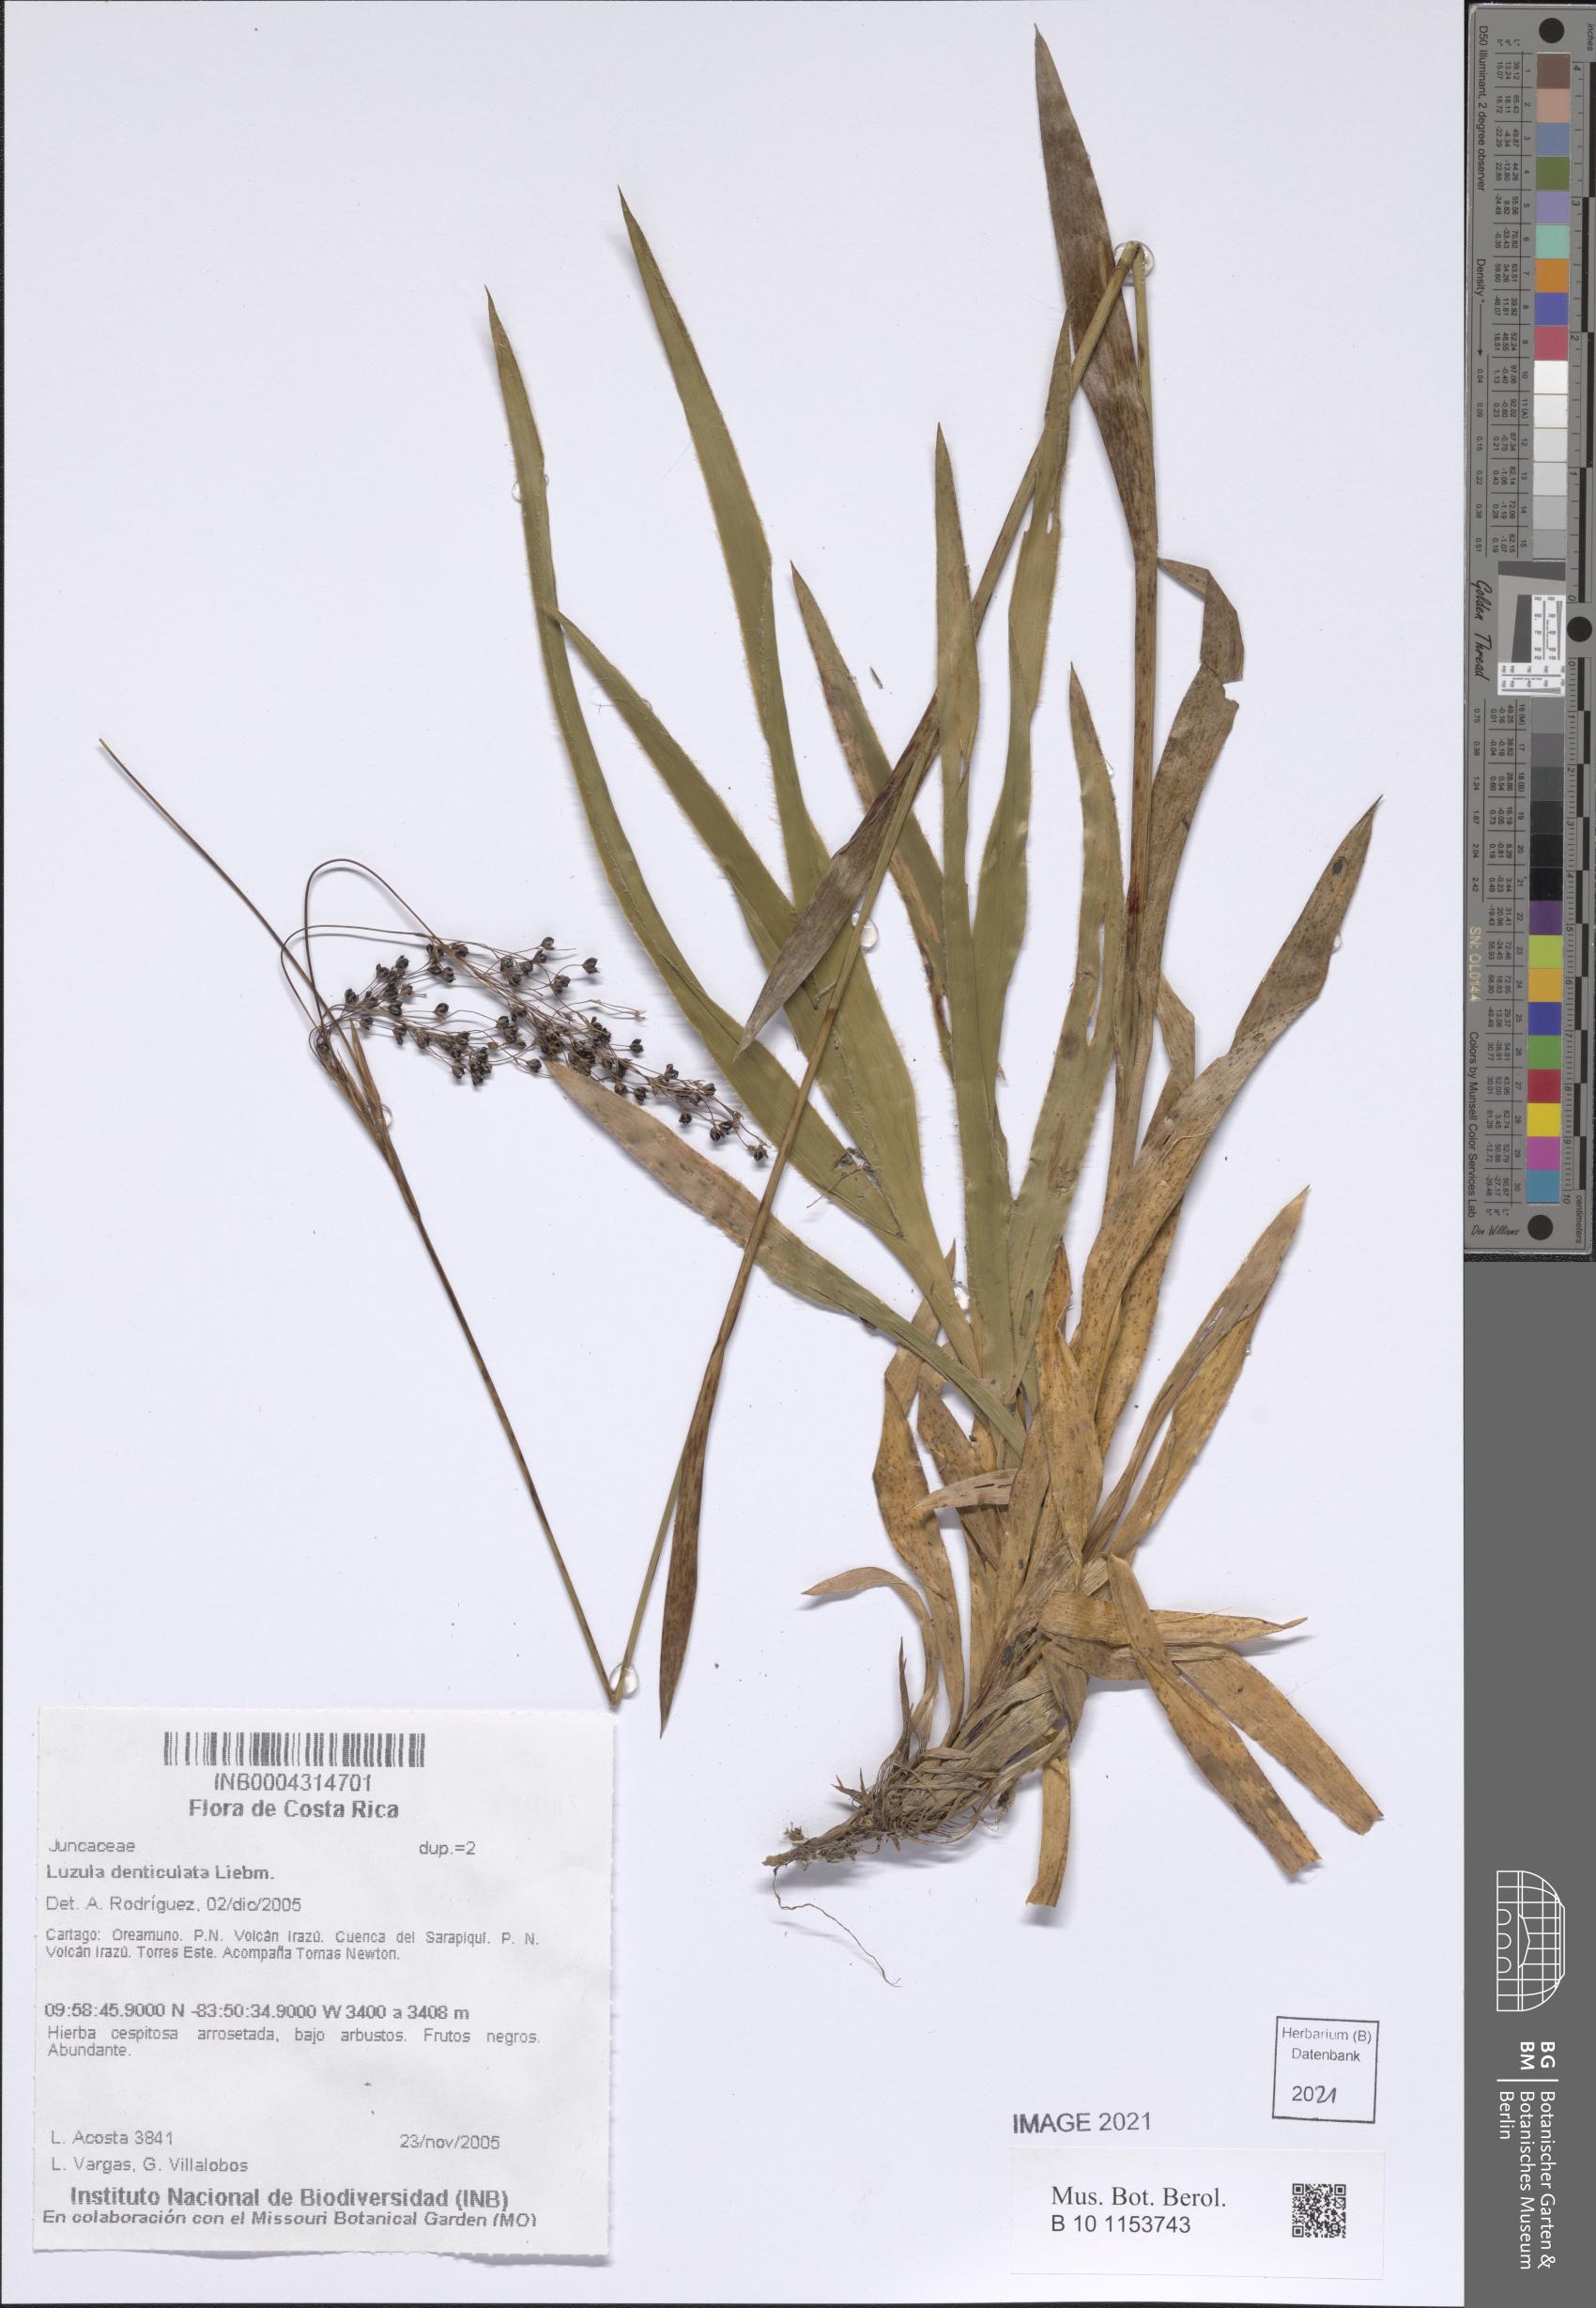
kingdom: Plantae
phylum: Tracheophyta
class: Liliopsida
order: Poales
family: Juncaceae
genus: Luzula
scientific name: Luzula denticulata
